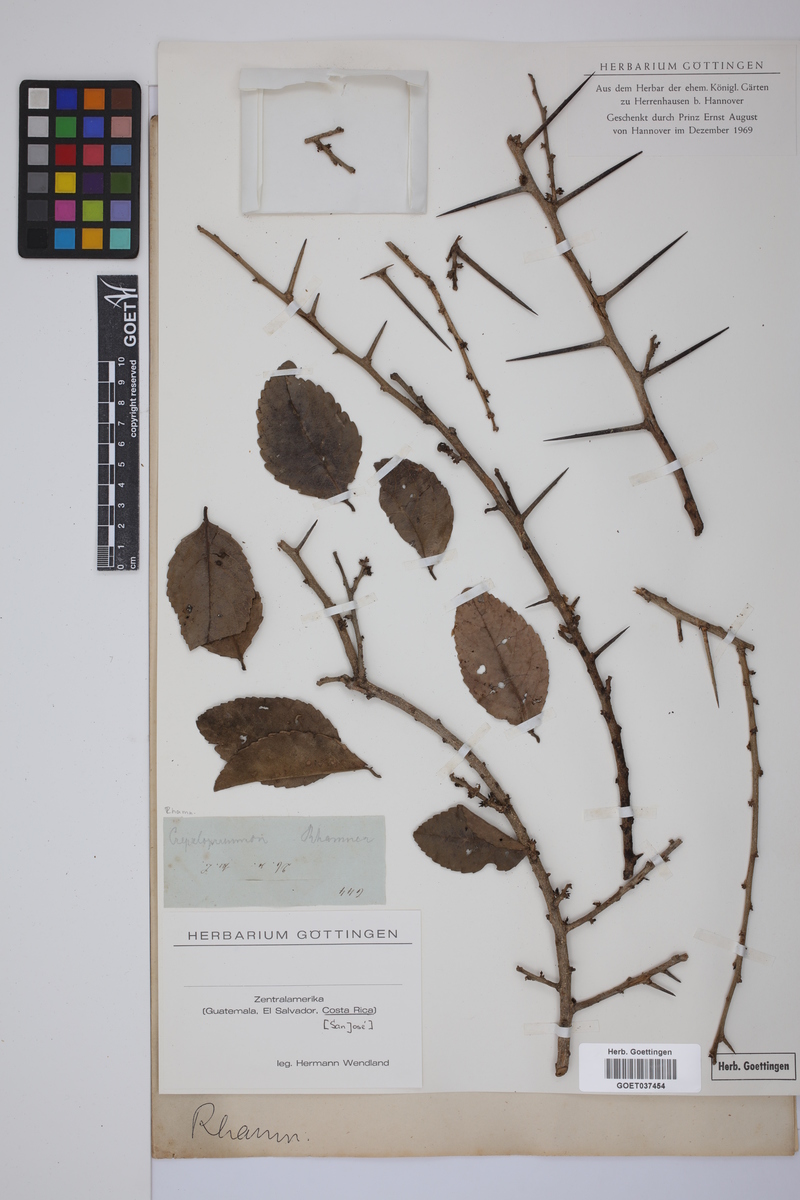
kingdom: Plantae
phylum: Tracheophyta
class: Magnoliopsida
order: Rosales
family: Rhamnaceae
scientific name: Rhamnaceae
